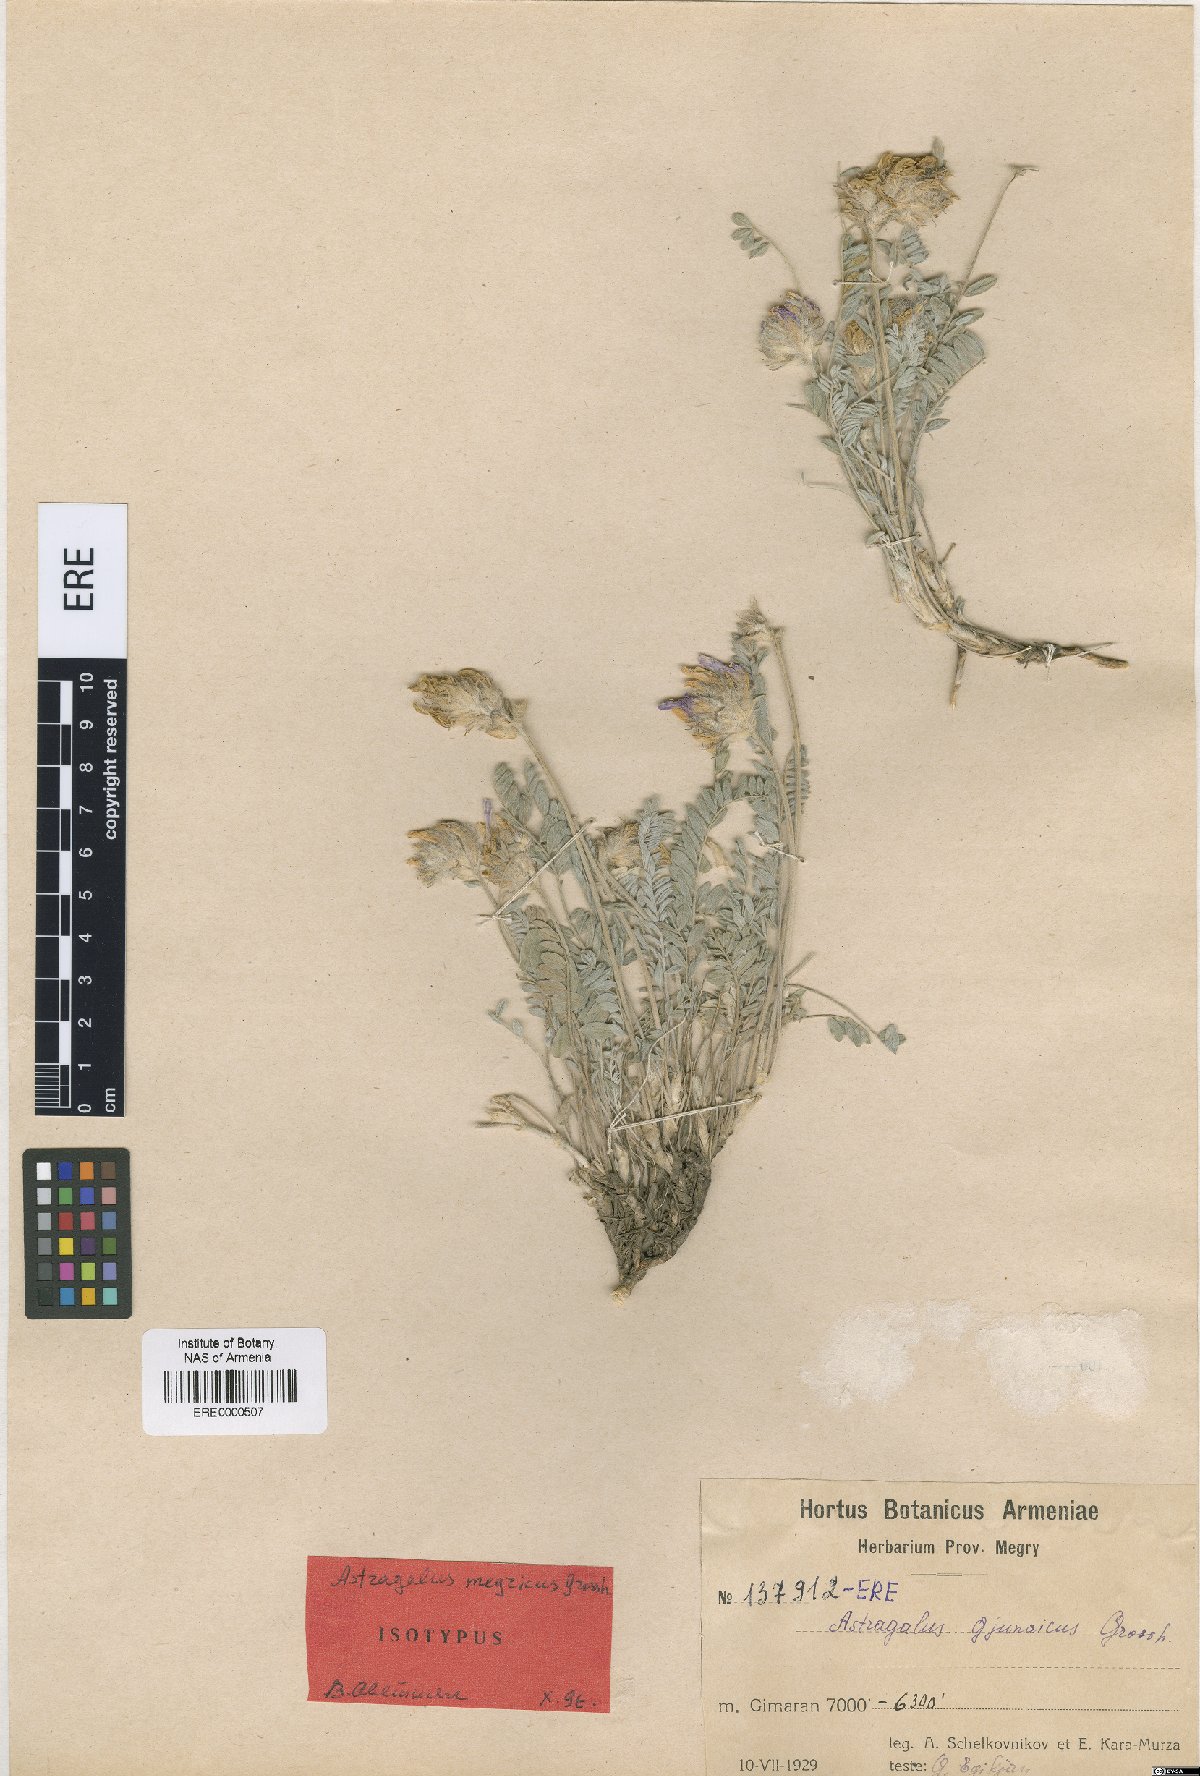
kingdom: Plantae
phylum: Tracheophyta
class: Magnoliopsida
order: Fabales
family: Fabaceae
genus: Astragalus
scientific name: Astragalus megricus
